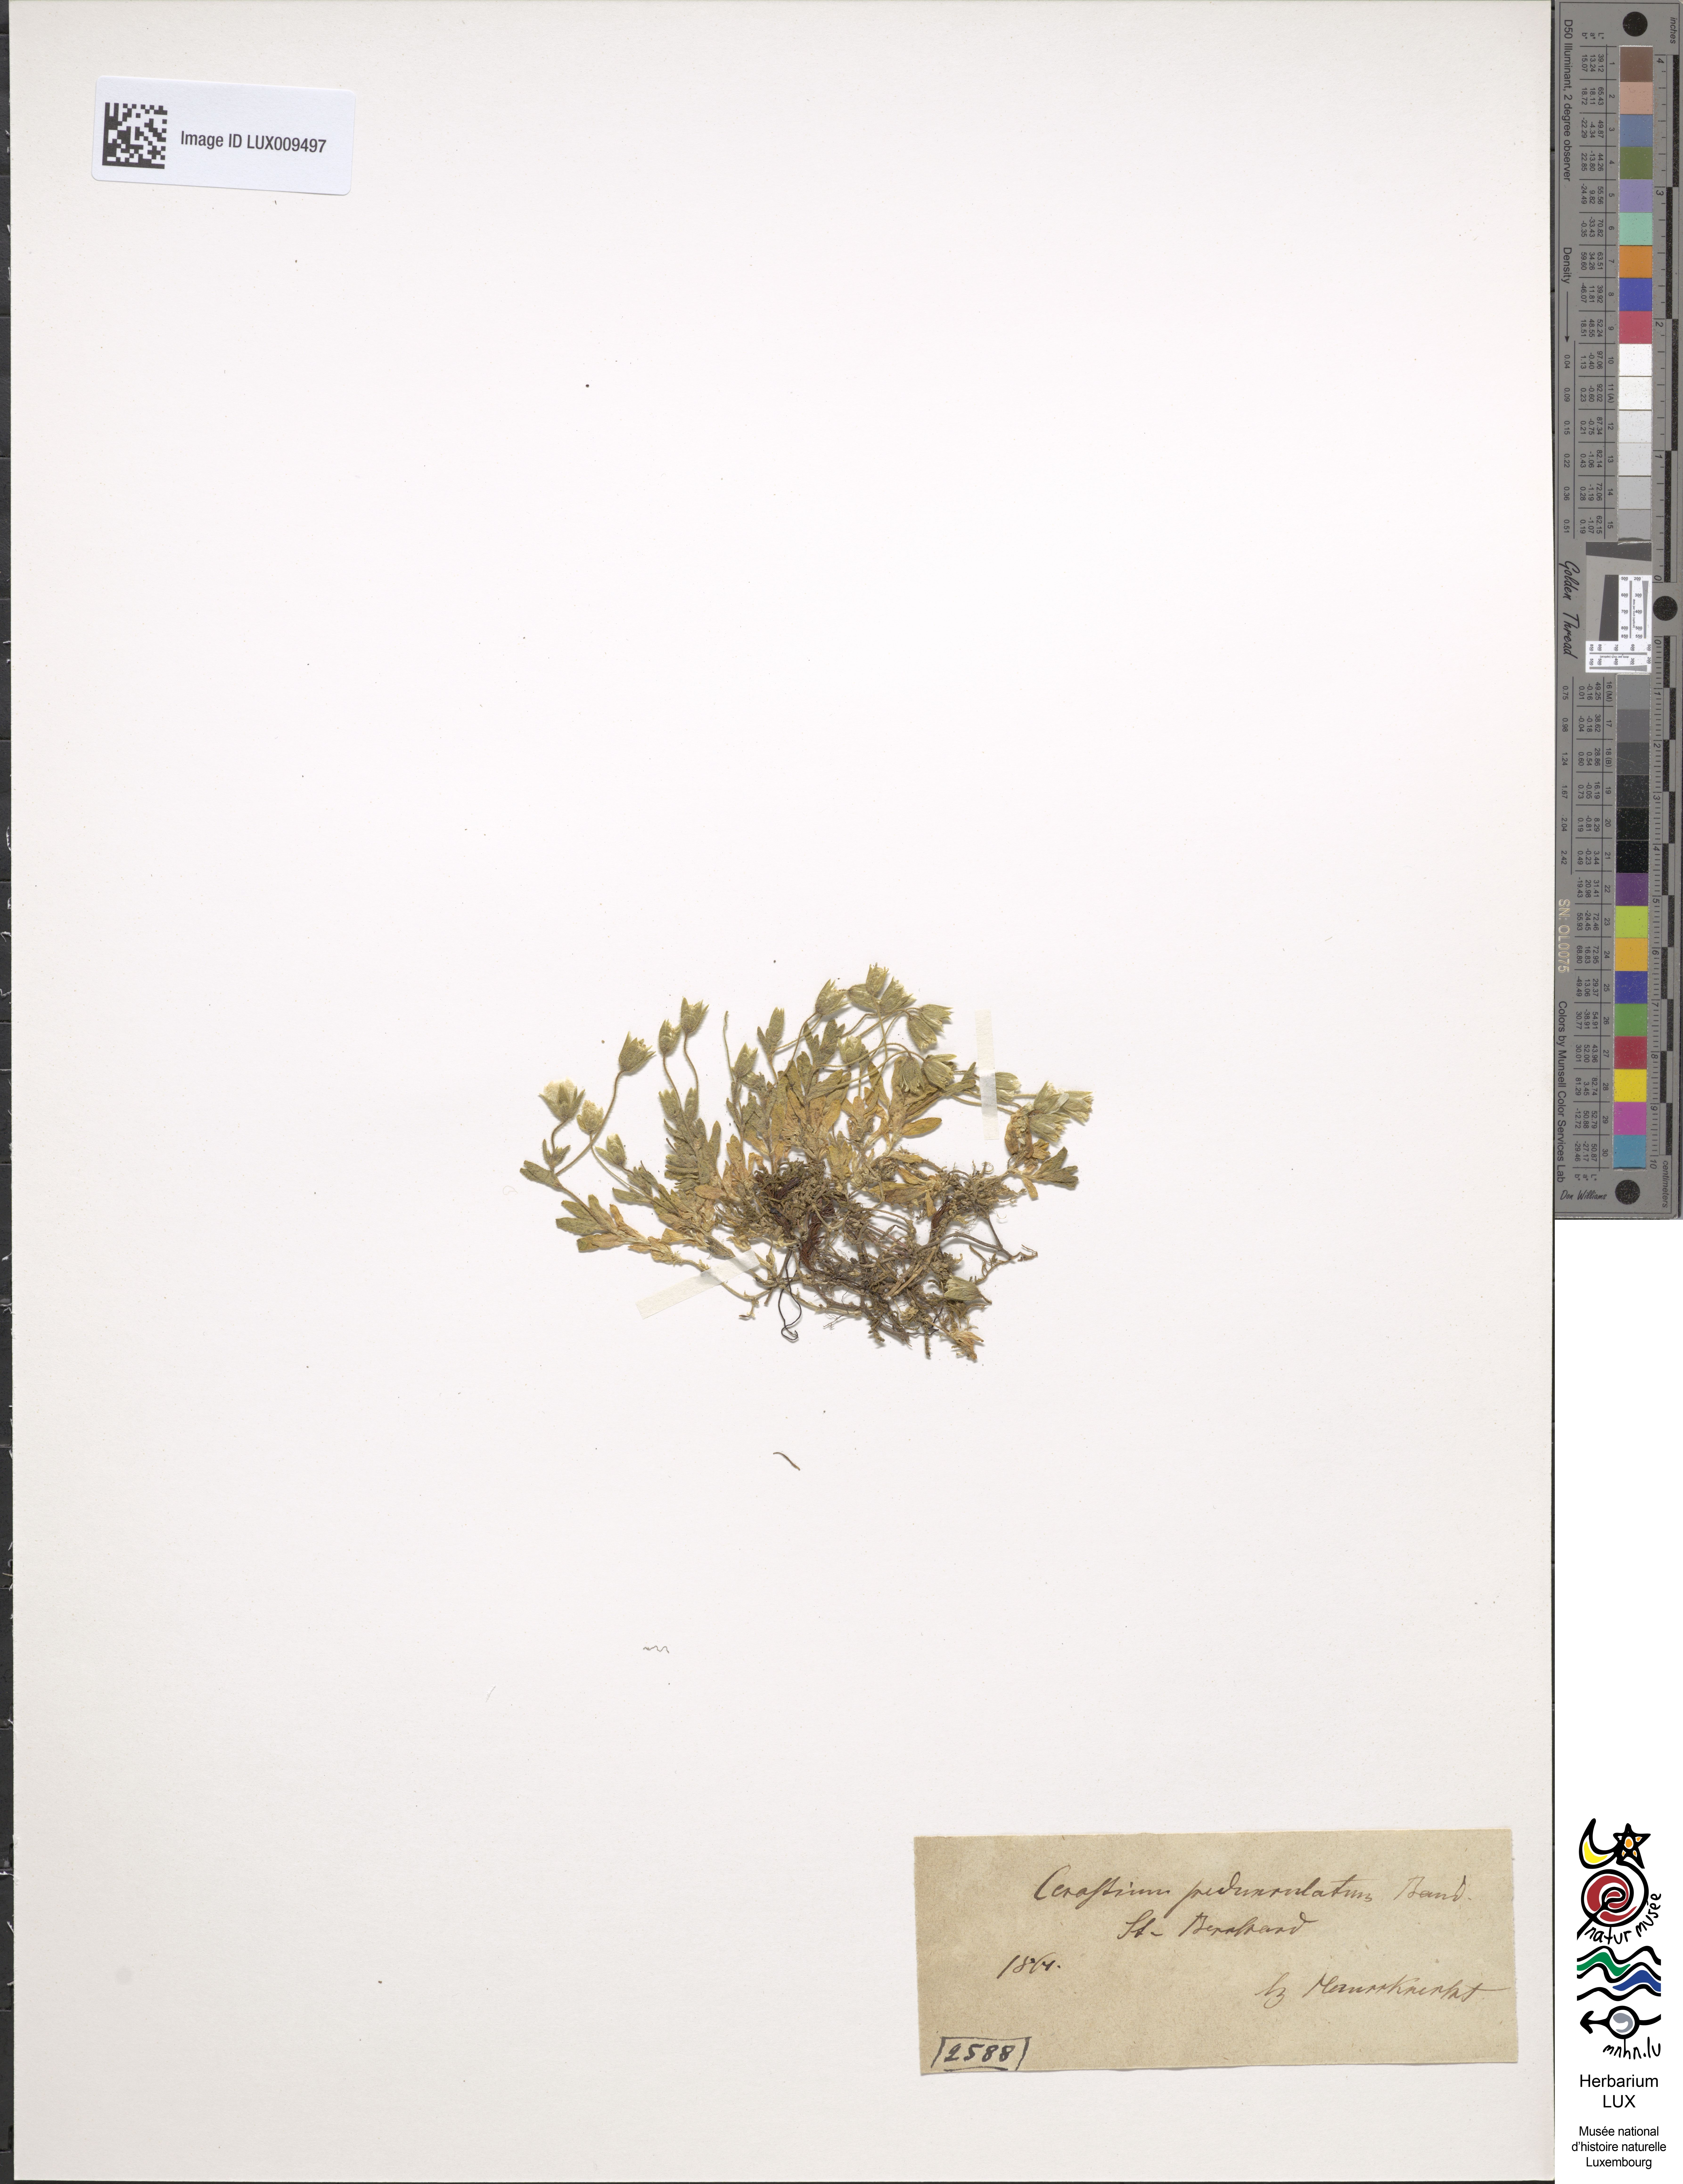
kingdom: Plantae
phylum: Tracheophyta
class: Magnoliopsida
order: Caryophyllales
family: Caryophyllaceae
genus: Cerastium
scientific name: Cerastium pedunculatum
